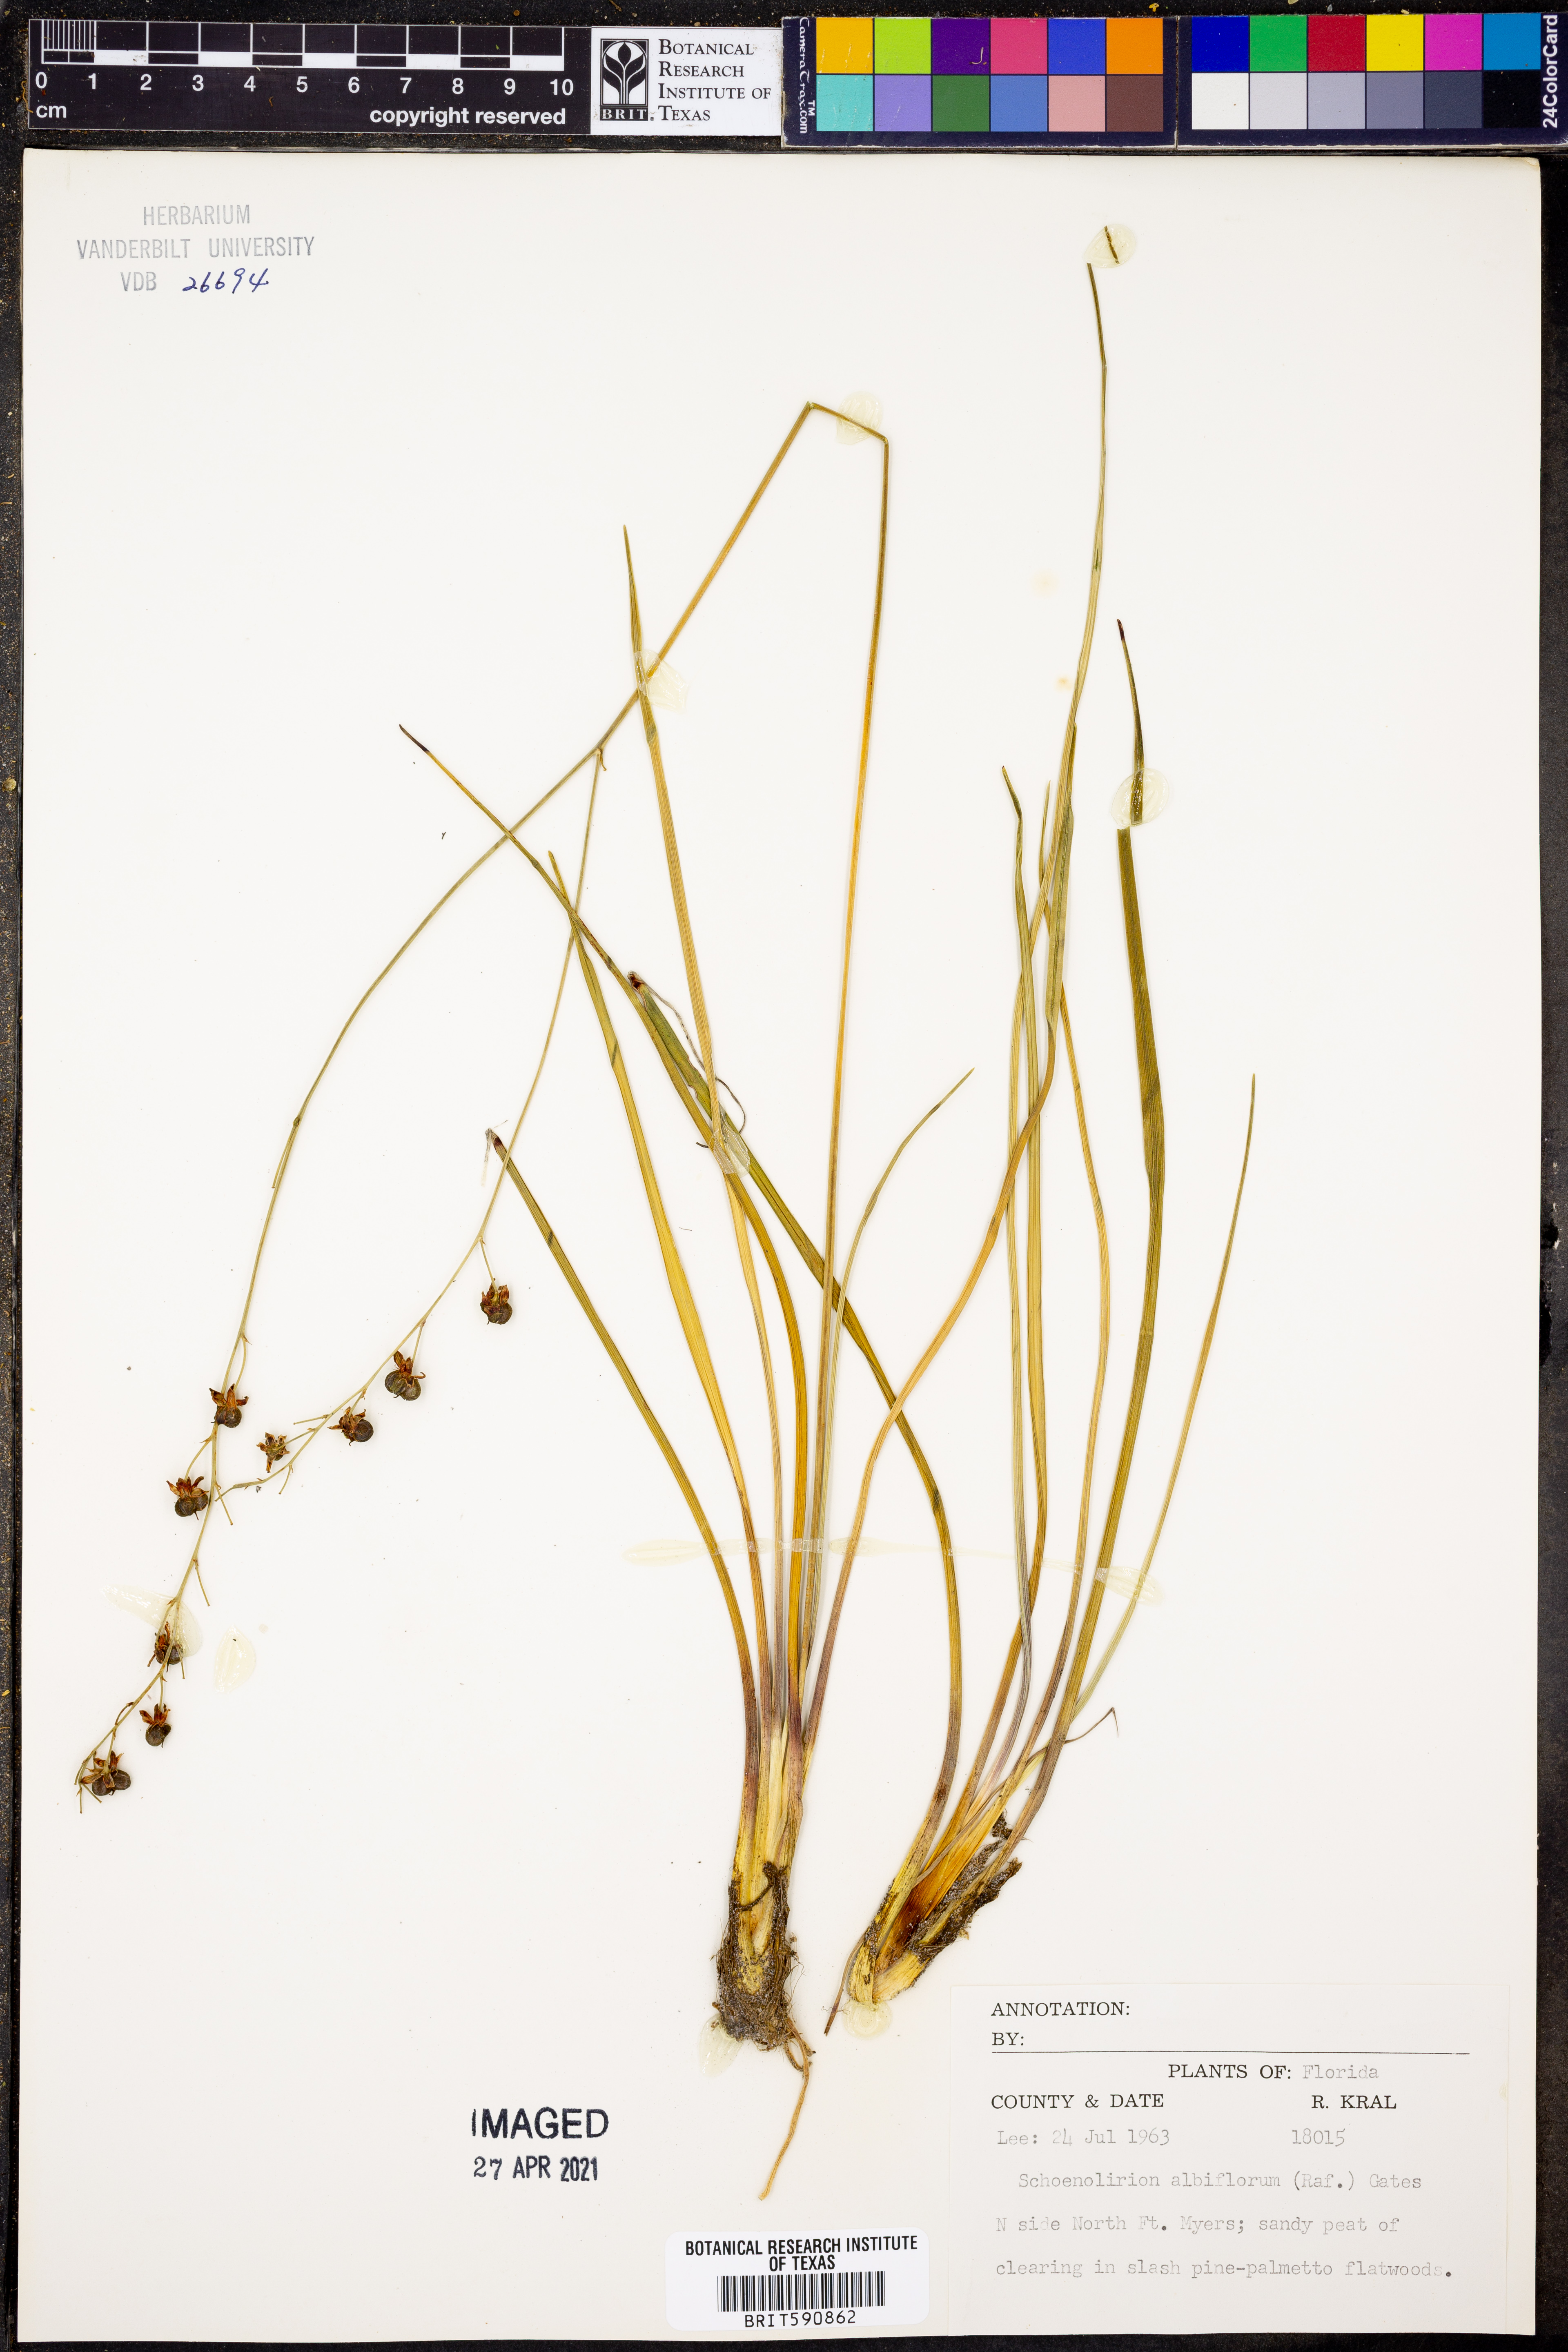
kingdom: Plantae
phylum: Tracheophyta
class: Liliopsida
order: Asparagales
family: Asparagaceae
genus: Schoenolirion
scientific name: Schoenolirion albiflorum
